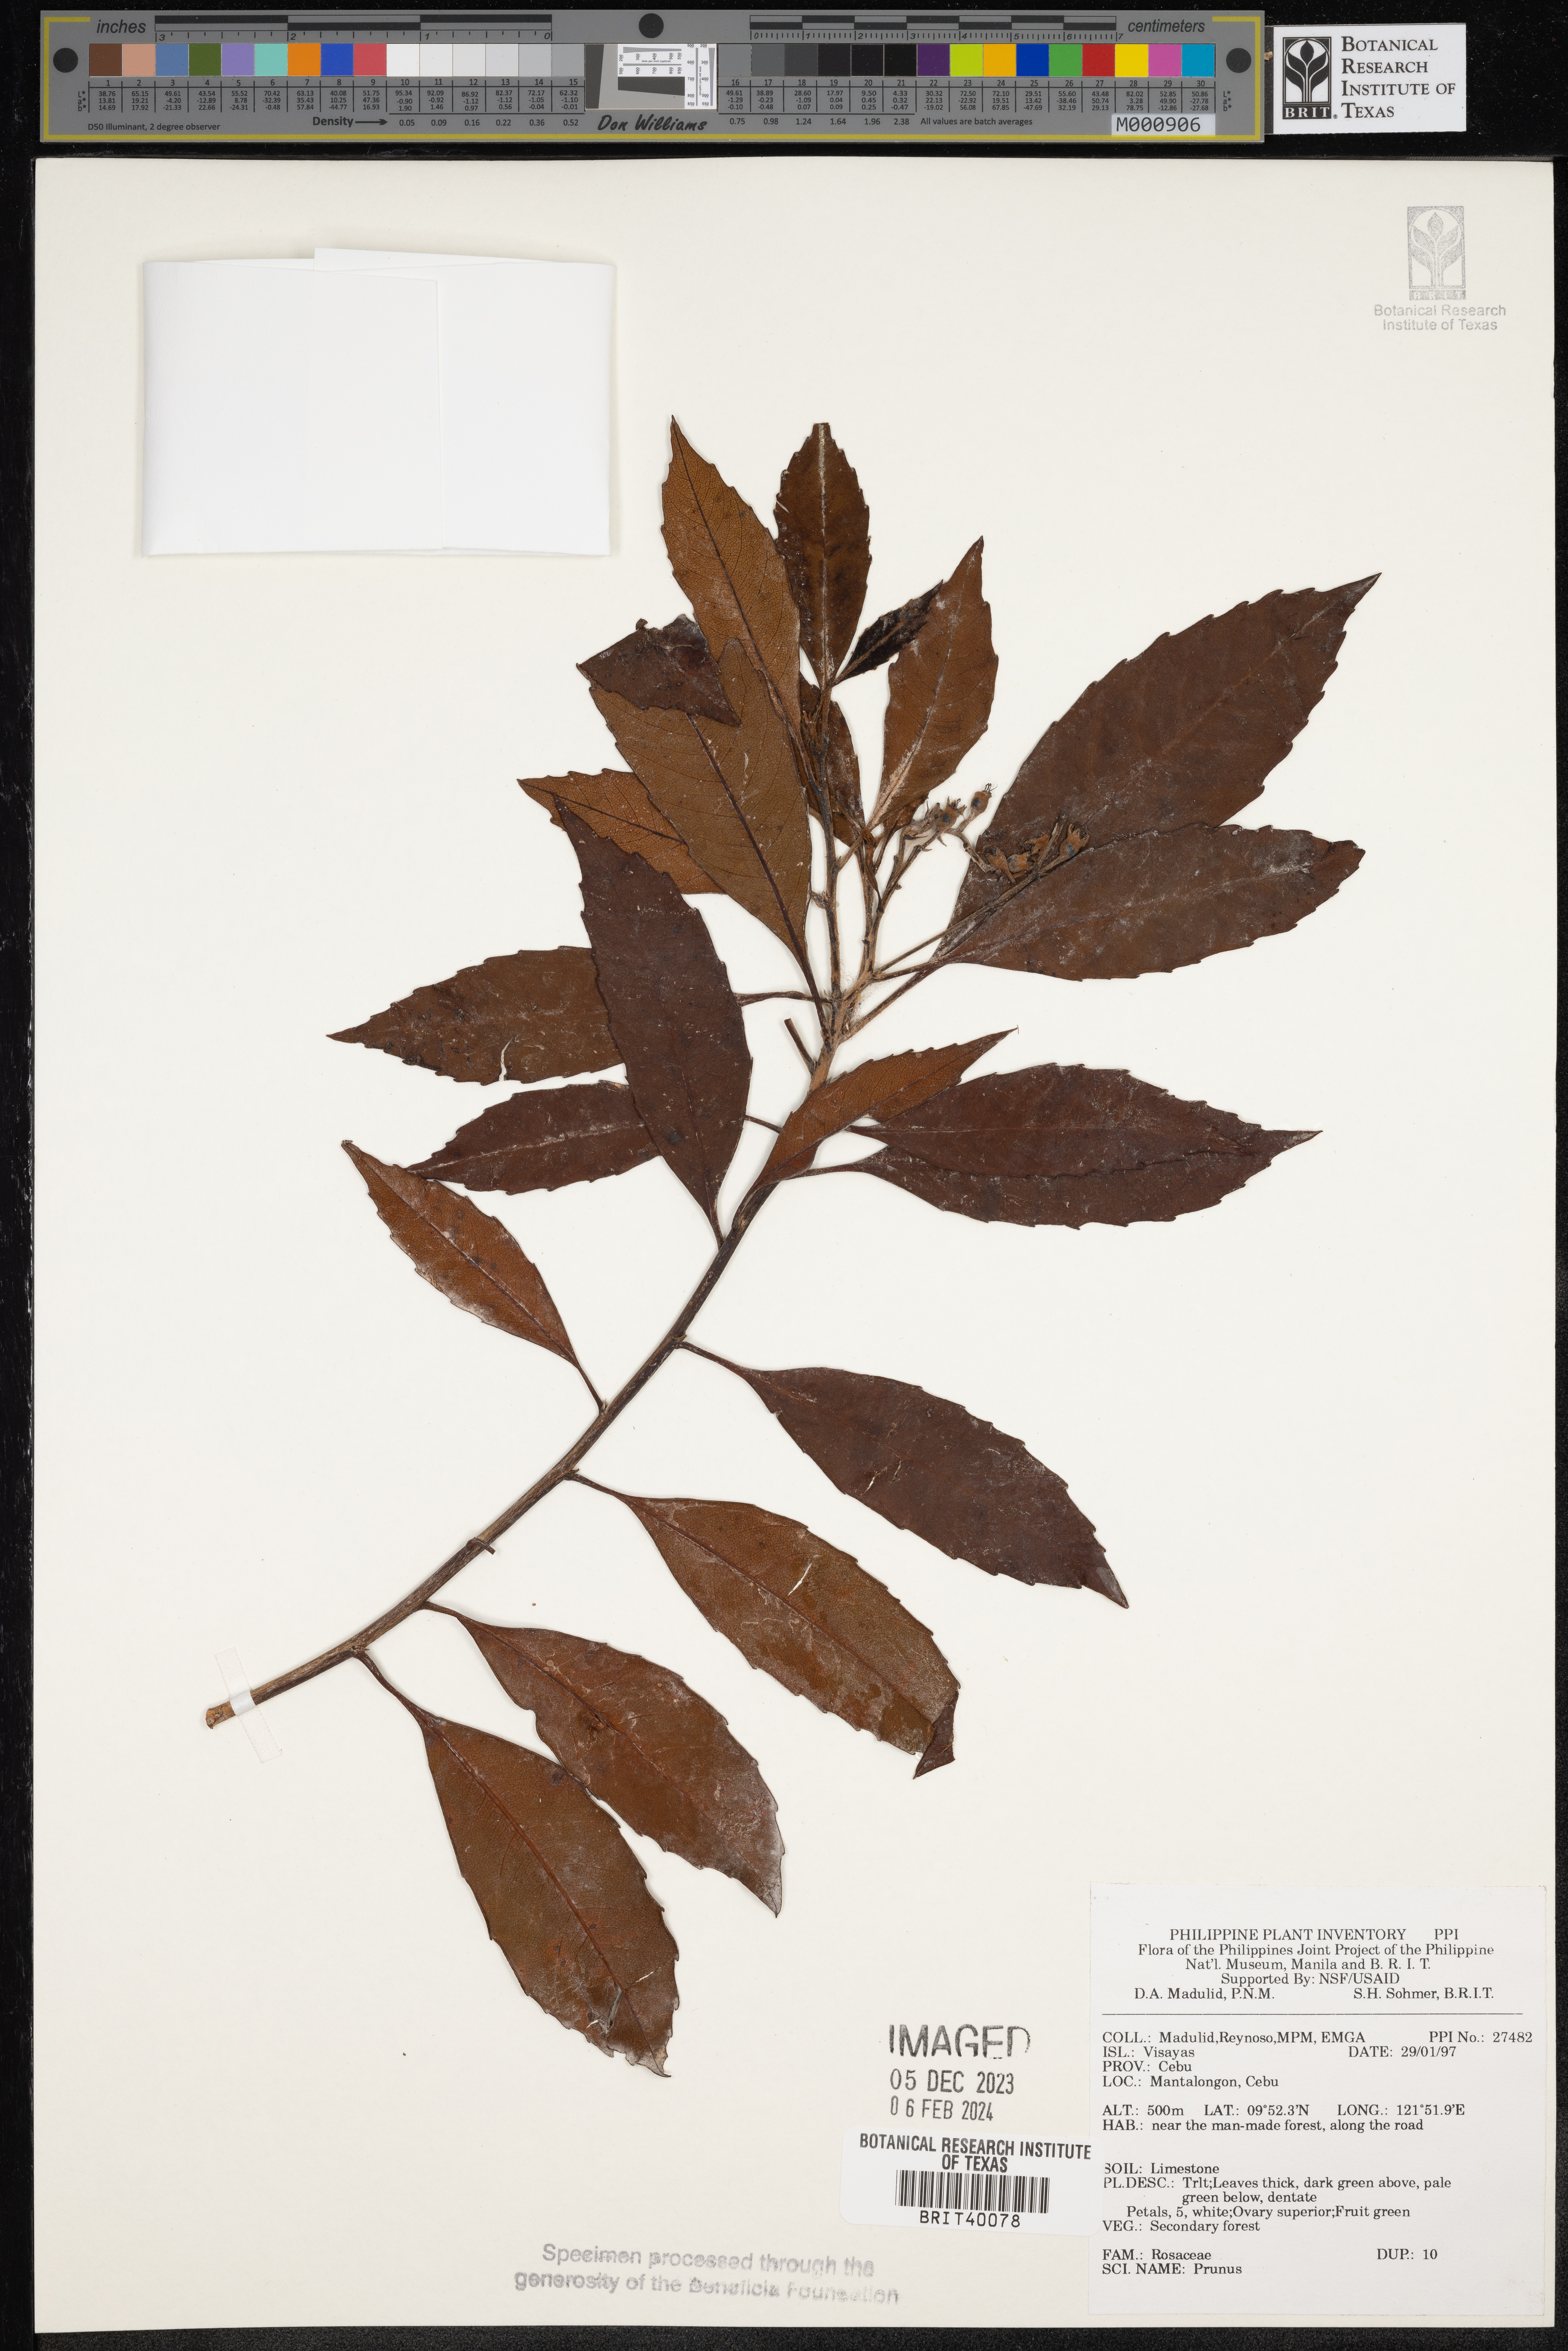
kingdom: Plantae
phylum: Tracheophyta
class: Magnoliopsida
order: Rosales
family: Rosaceae
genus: Prunus
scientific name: Prunus
